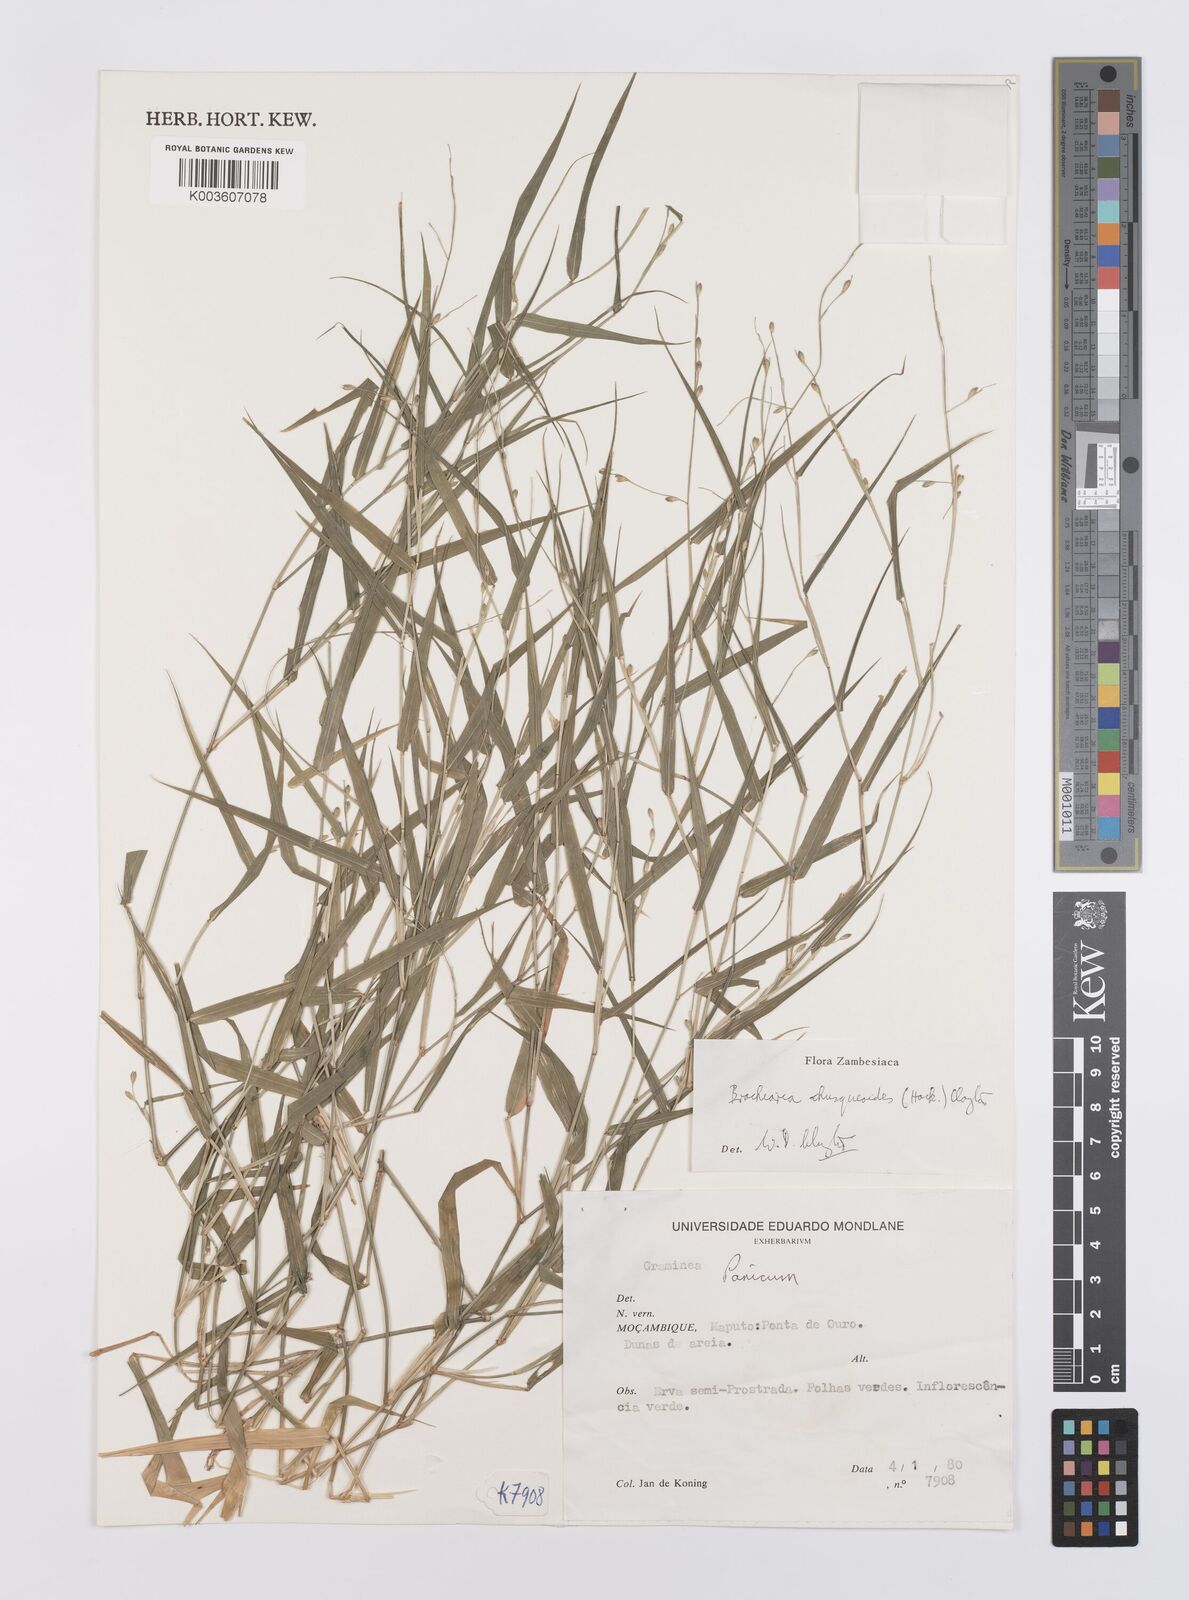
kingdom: Plantae
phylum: Tracheophyta
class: Liliopsida
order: Poales
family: Poaceae
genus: Urochloa
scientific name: Urochloa chusqueoides
